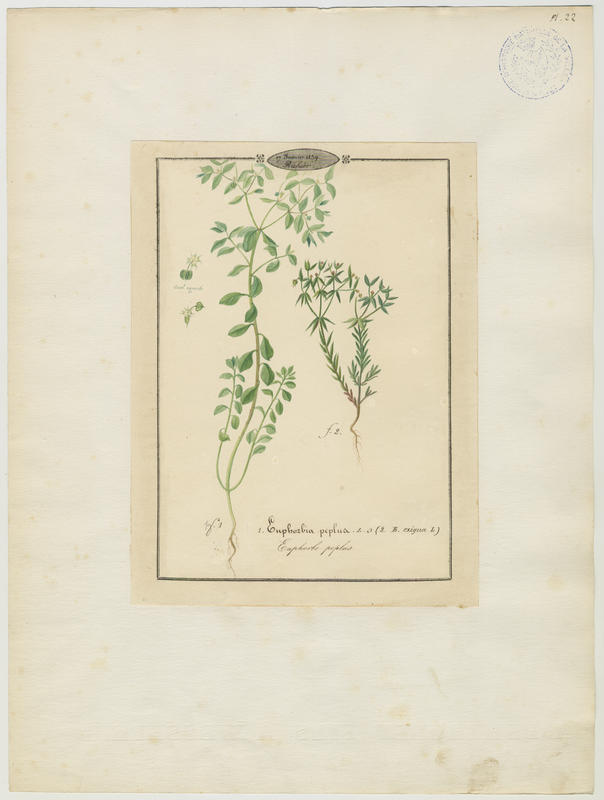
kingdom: Plantae
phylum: Tracheophyta
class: Magnoliopsida
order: Malpighiales
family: Euphorbiaceae
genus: Euphorbia
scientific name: Euphorbia exigua
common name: Dwarf spurge
